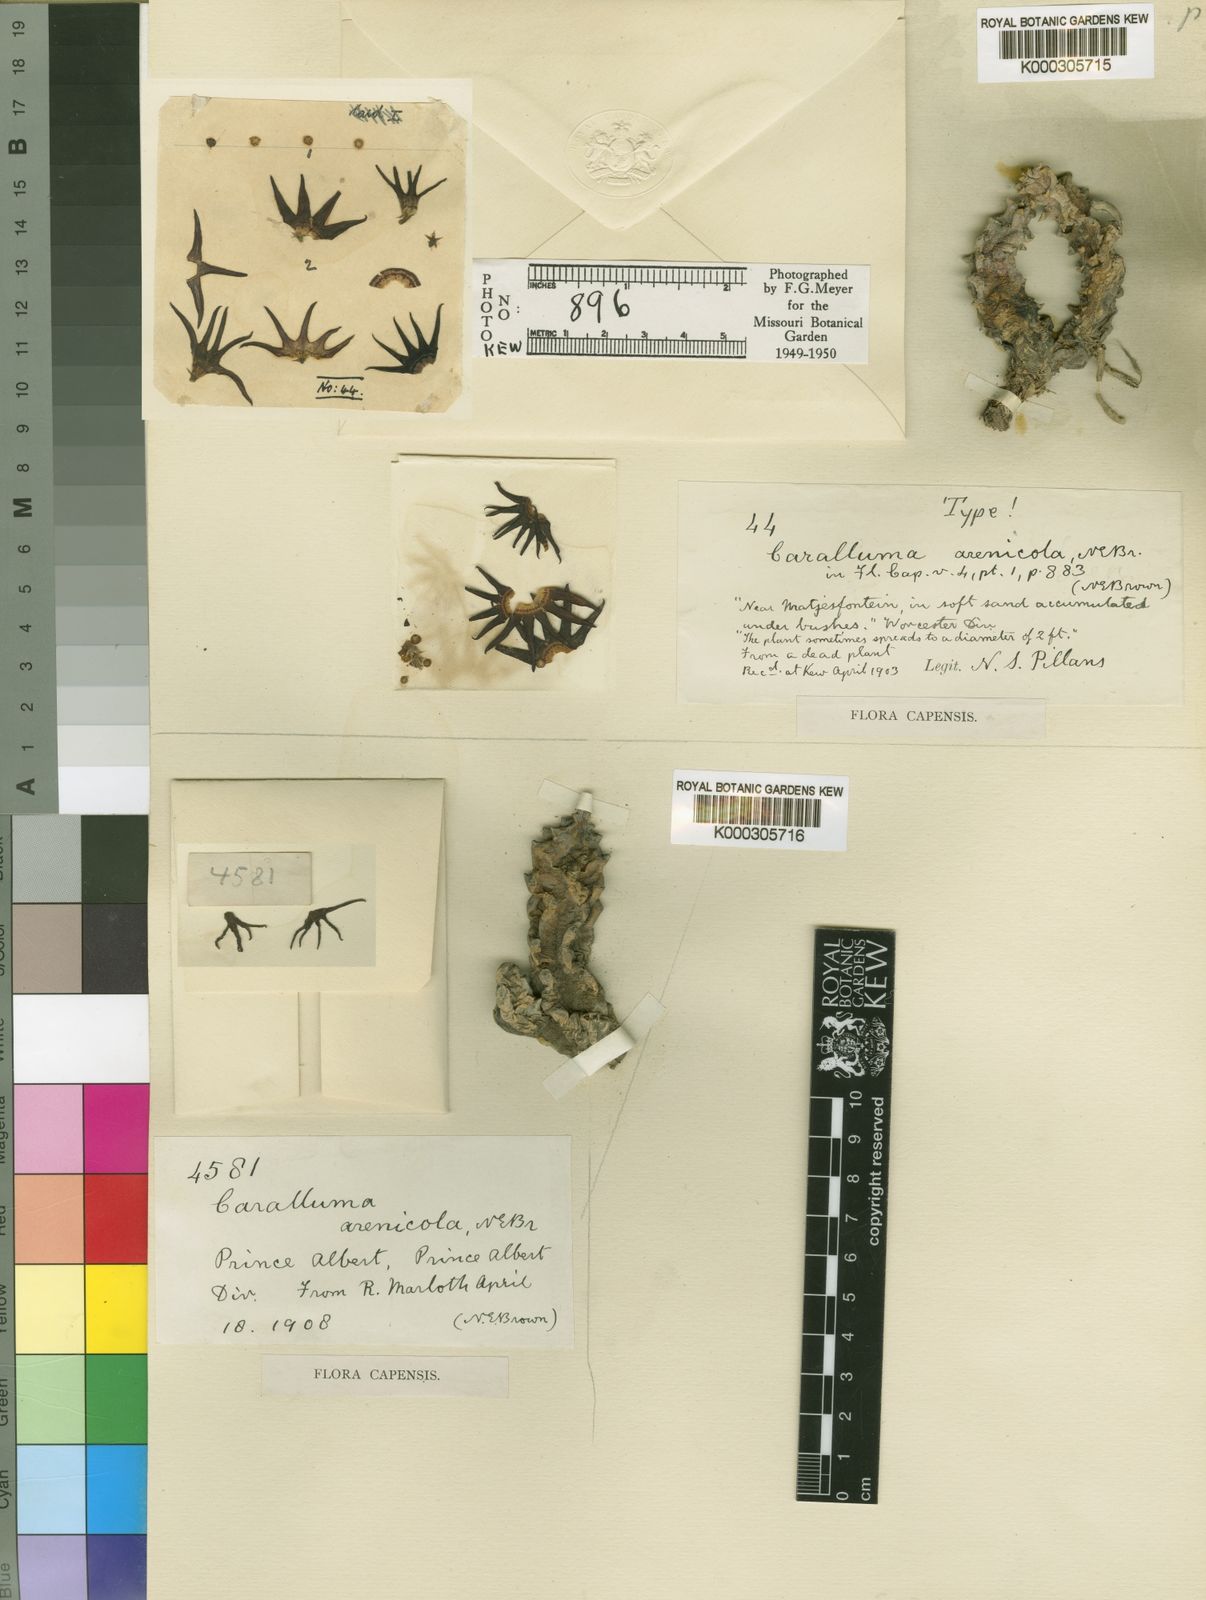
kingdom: Plantae
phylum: Tracheophyta
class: Magnoliopsida
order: Gentianales
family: Apocynaceae
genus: Ceropegia
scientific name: Ceropegia arenicola
